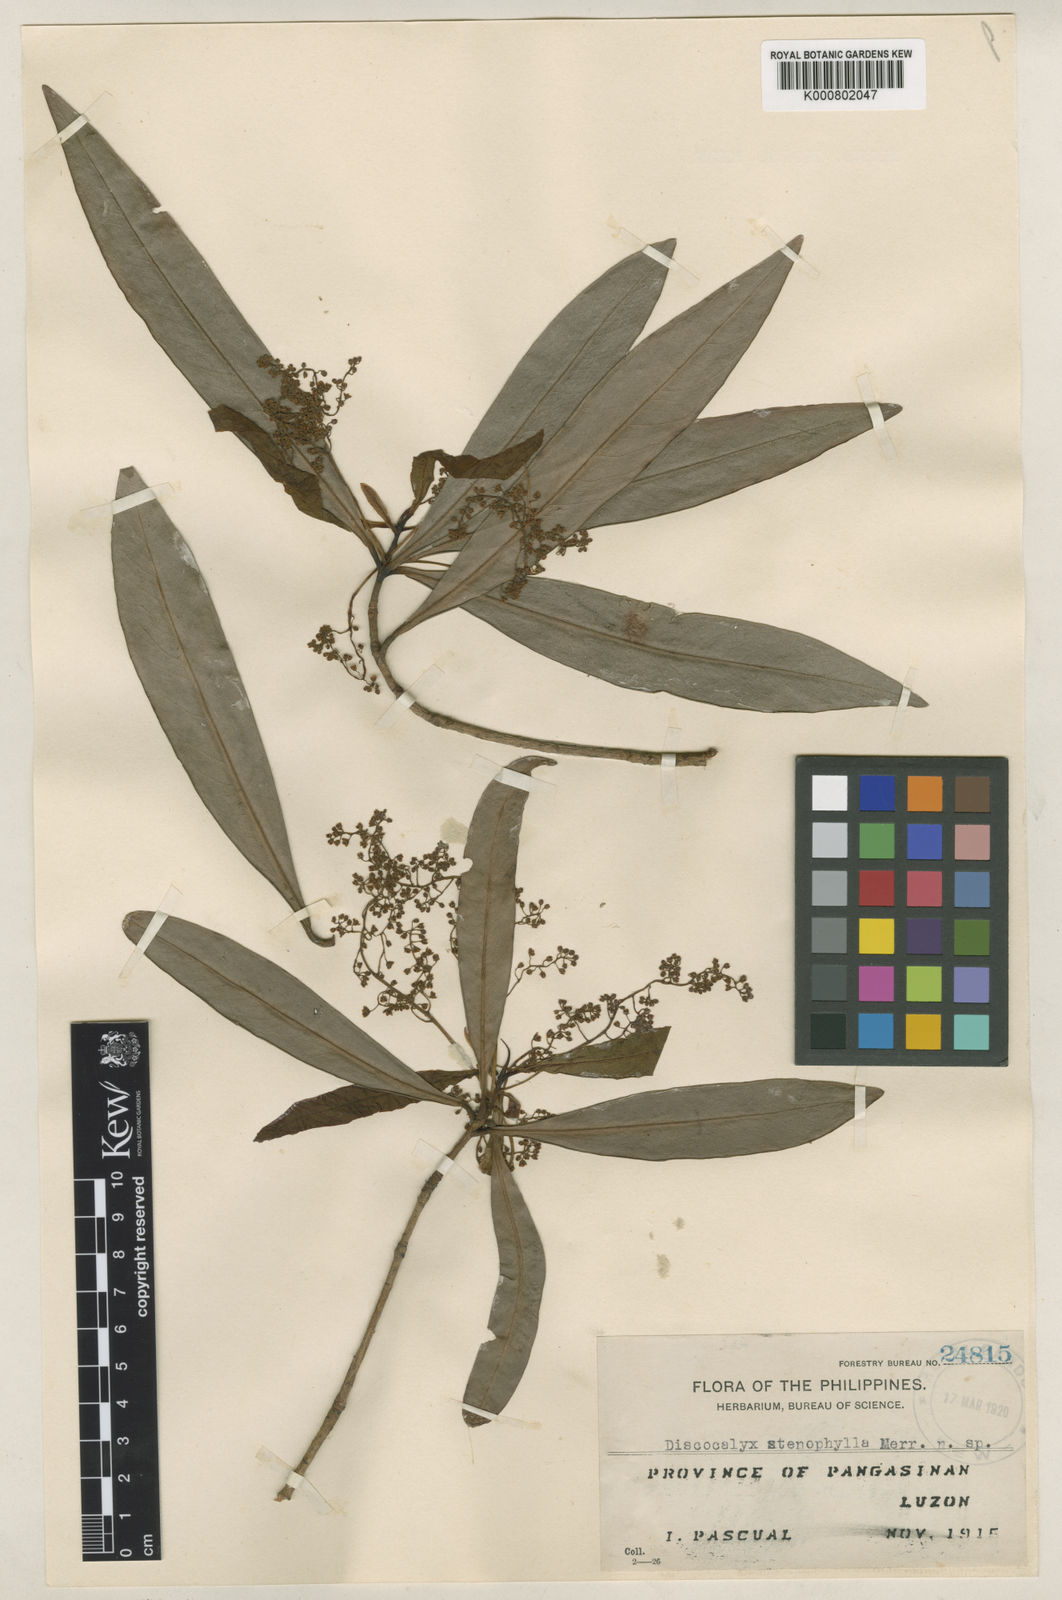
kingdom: Plantae
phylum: Tracheophyta
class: Magnoliopsida
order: Ericales
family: Primulaceae
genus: Discocalyx
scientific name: Discocalyx stenophylla
